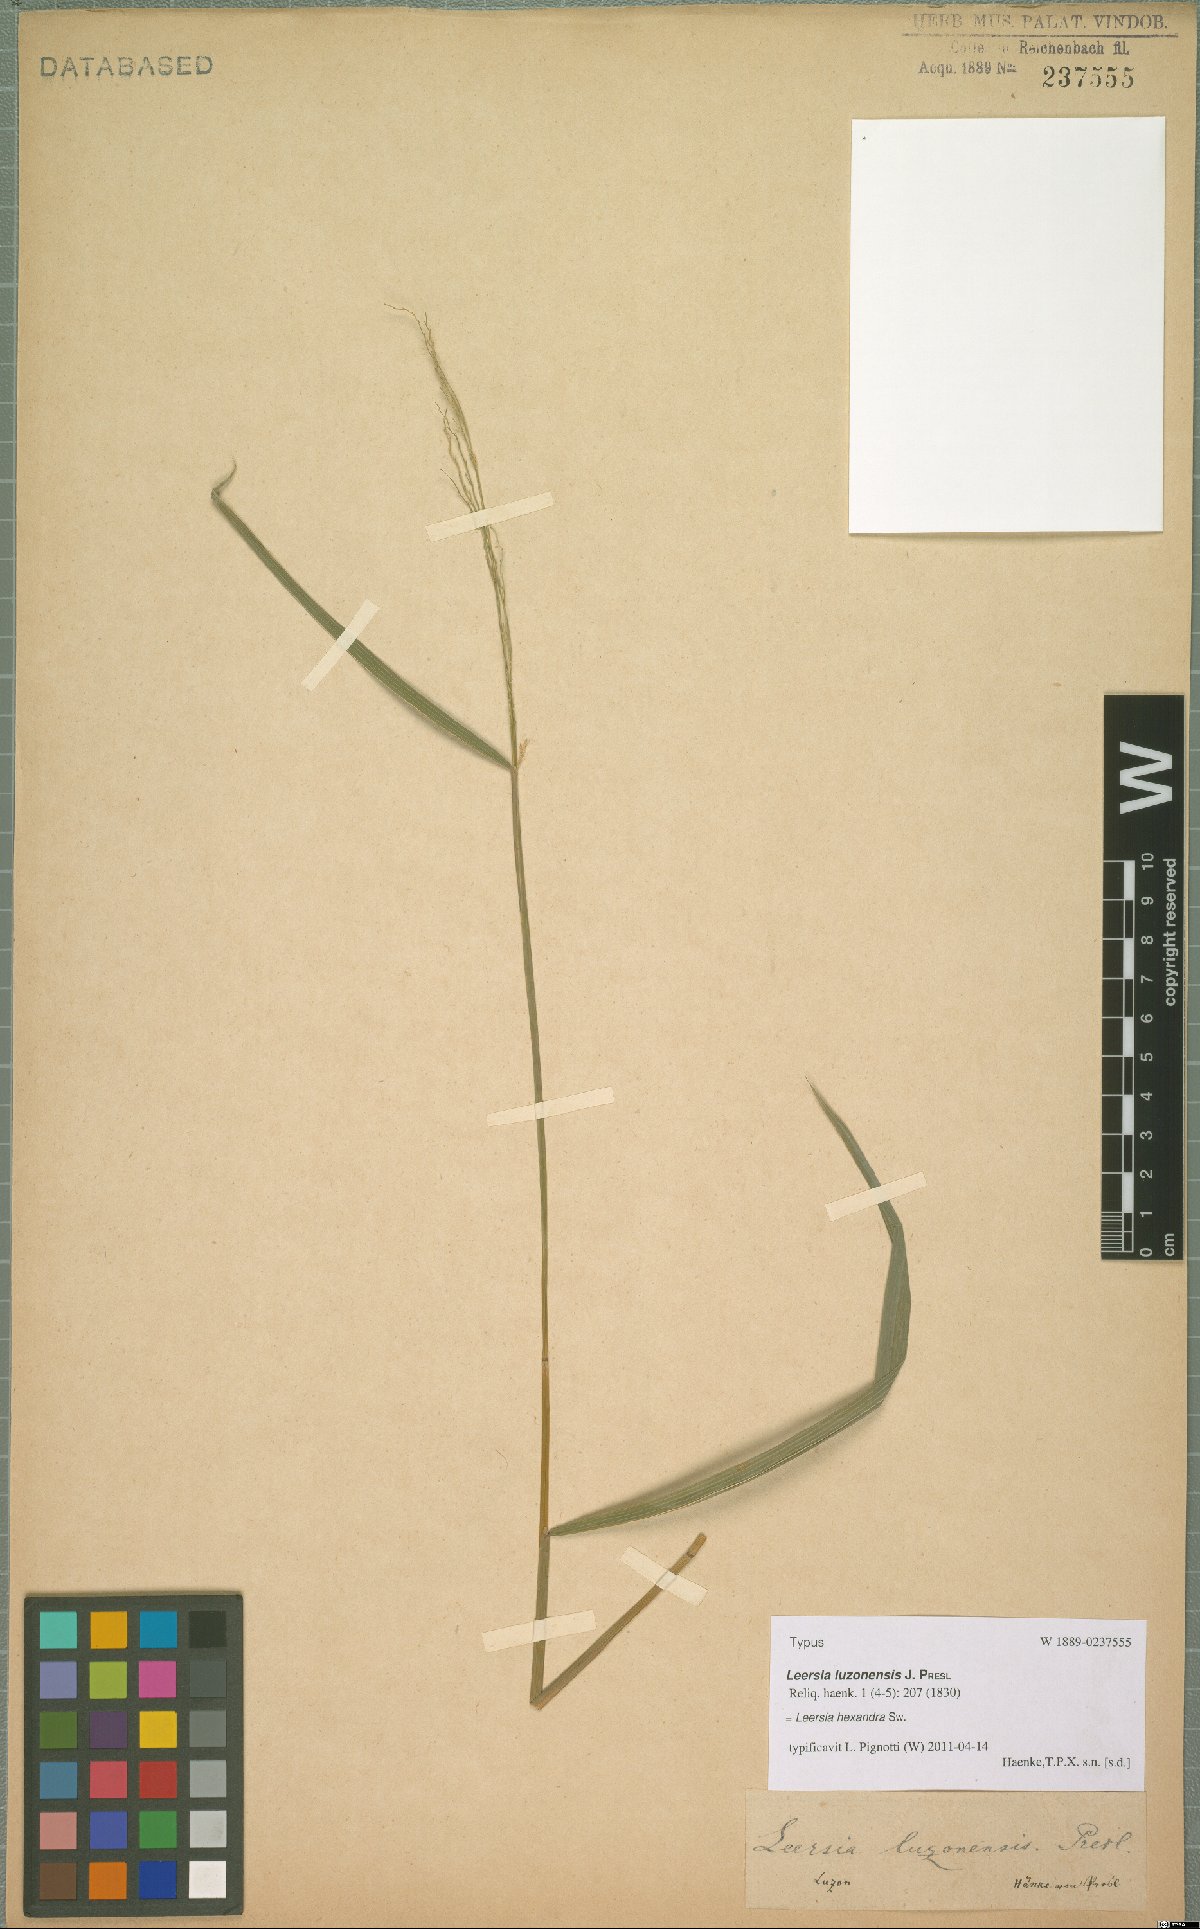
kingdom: Plantae
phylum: Tracheophyta
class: Liliopsida
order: Poales
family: Poaceae
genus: Leersia
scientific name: Leersia hexandra
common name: Southern cut grass
